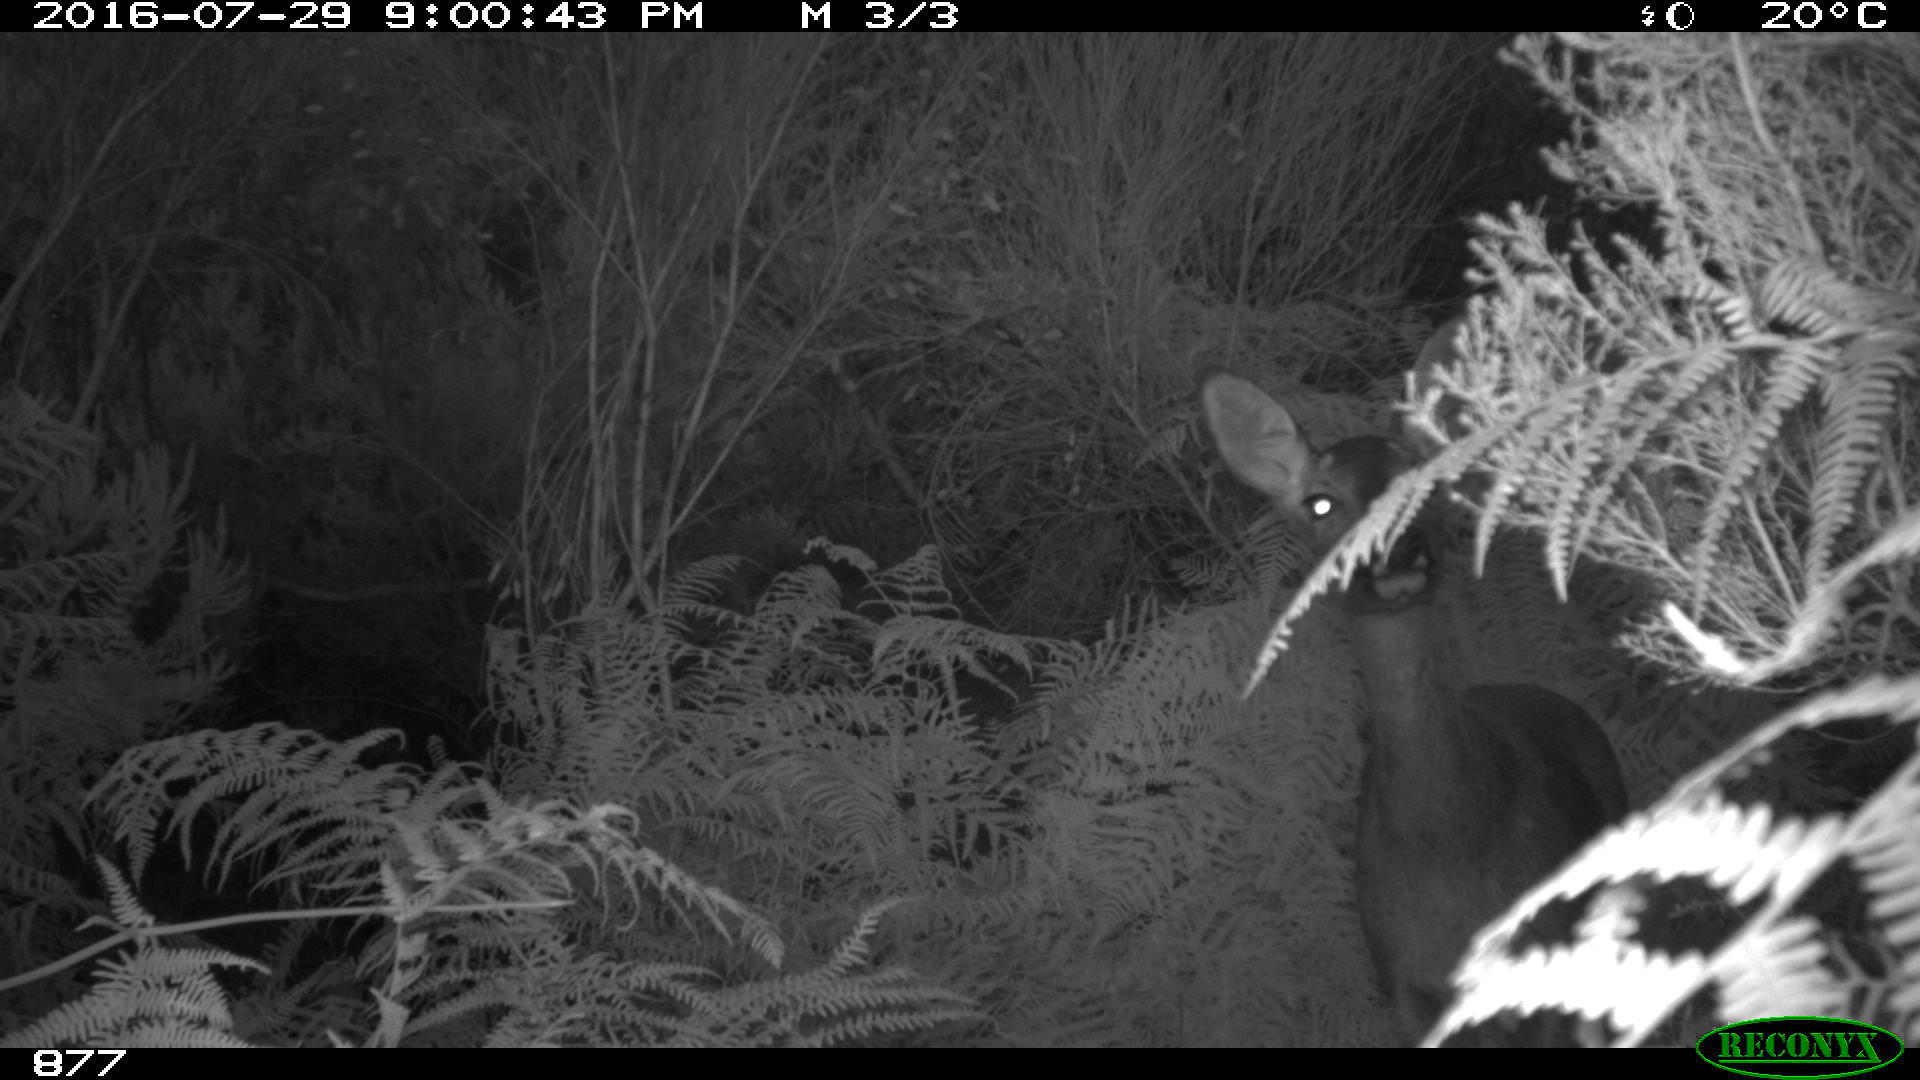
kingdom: Animalia
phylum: Chordata
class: Mammalia
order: Artiodactyla
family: Cervidae
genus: Capreolus
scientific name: Capreolus capreolus
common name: Western roe deer
